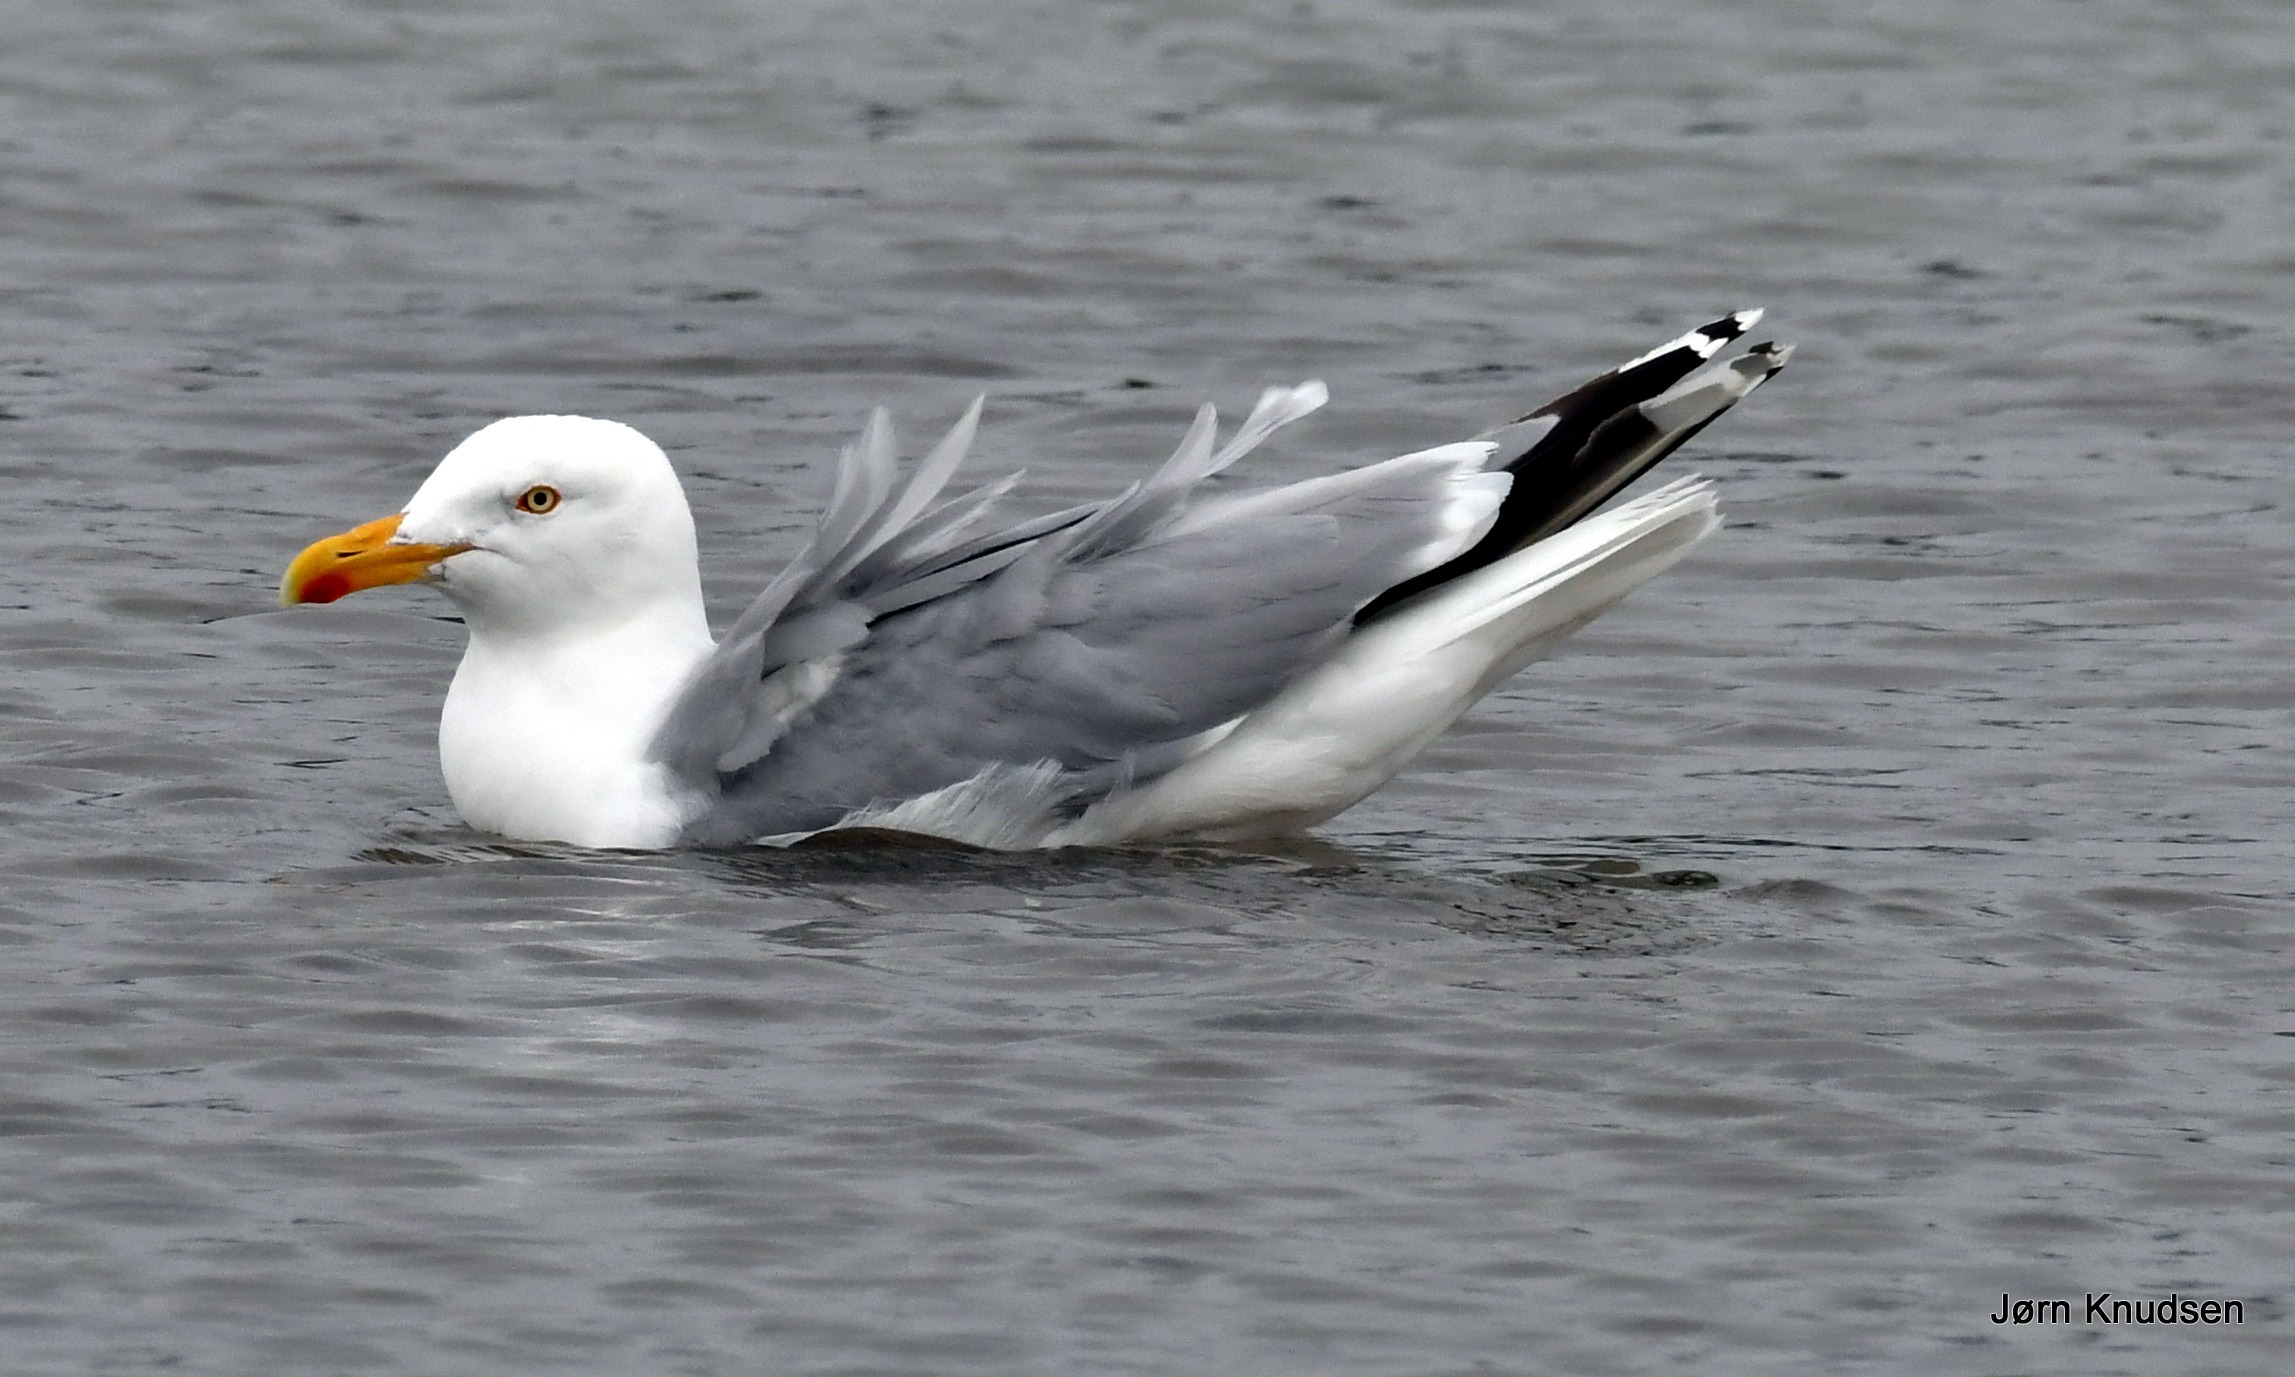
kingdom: Animalia
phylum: Chordata
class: Aves
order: Charadriiformes
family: Laridae
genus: Larus
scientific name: Larus argentatus
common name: Sølvmåge
